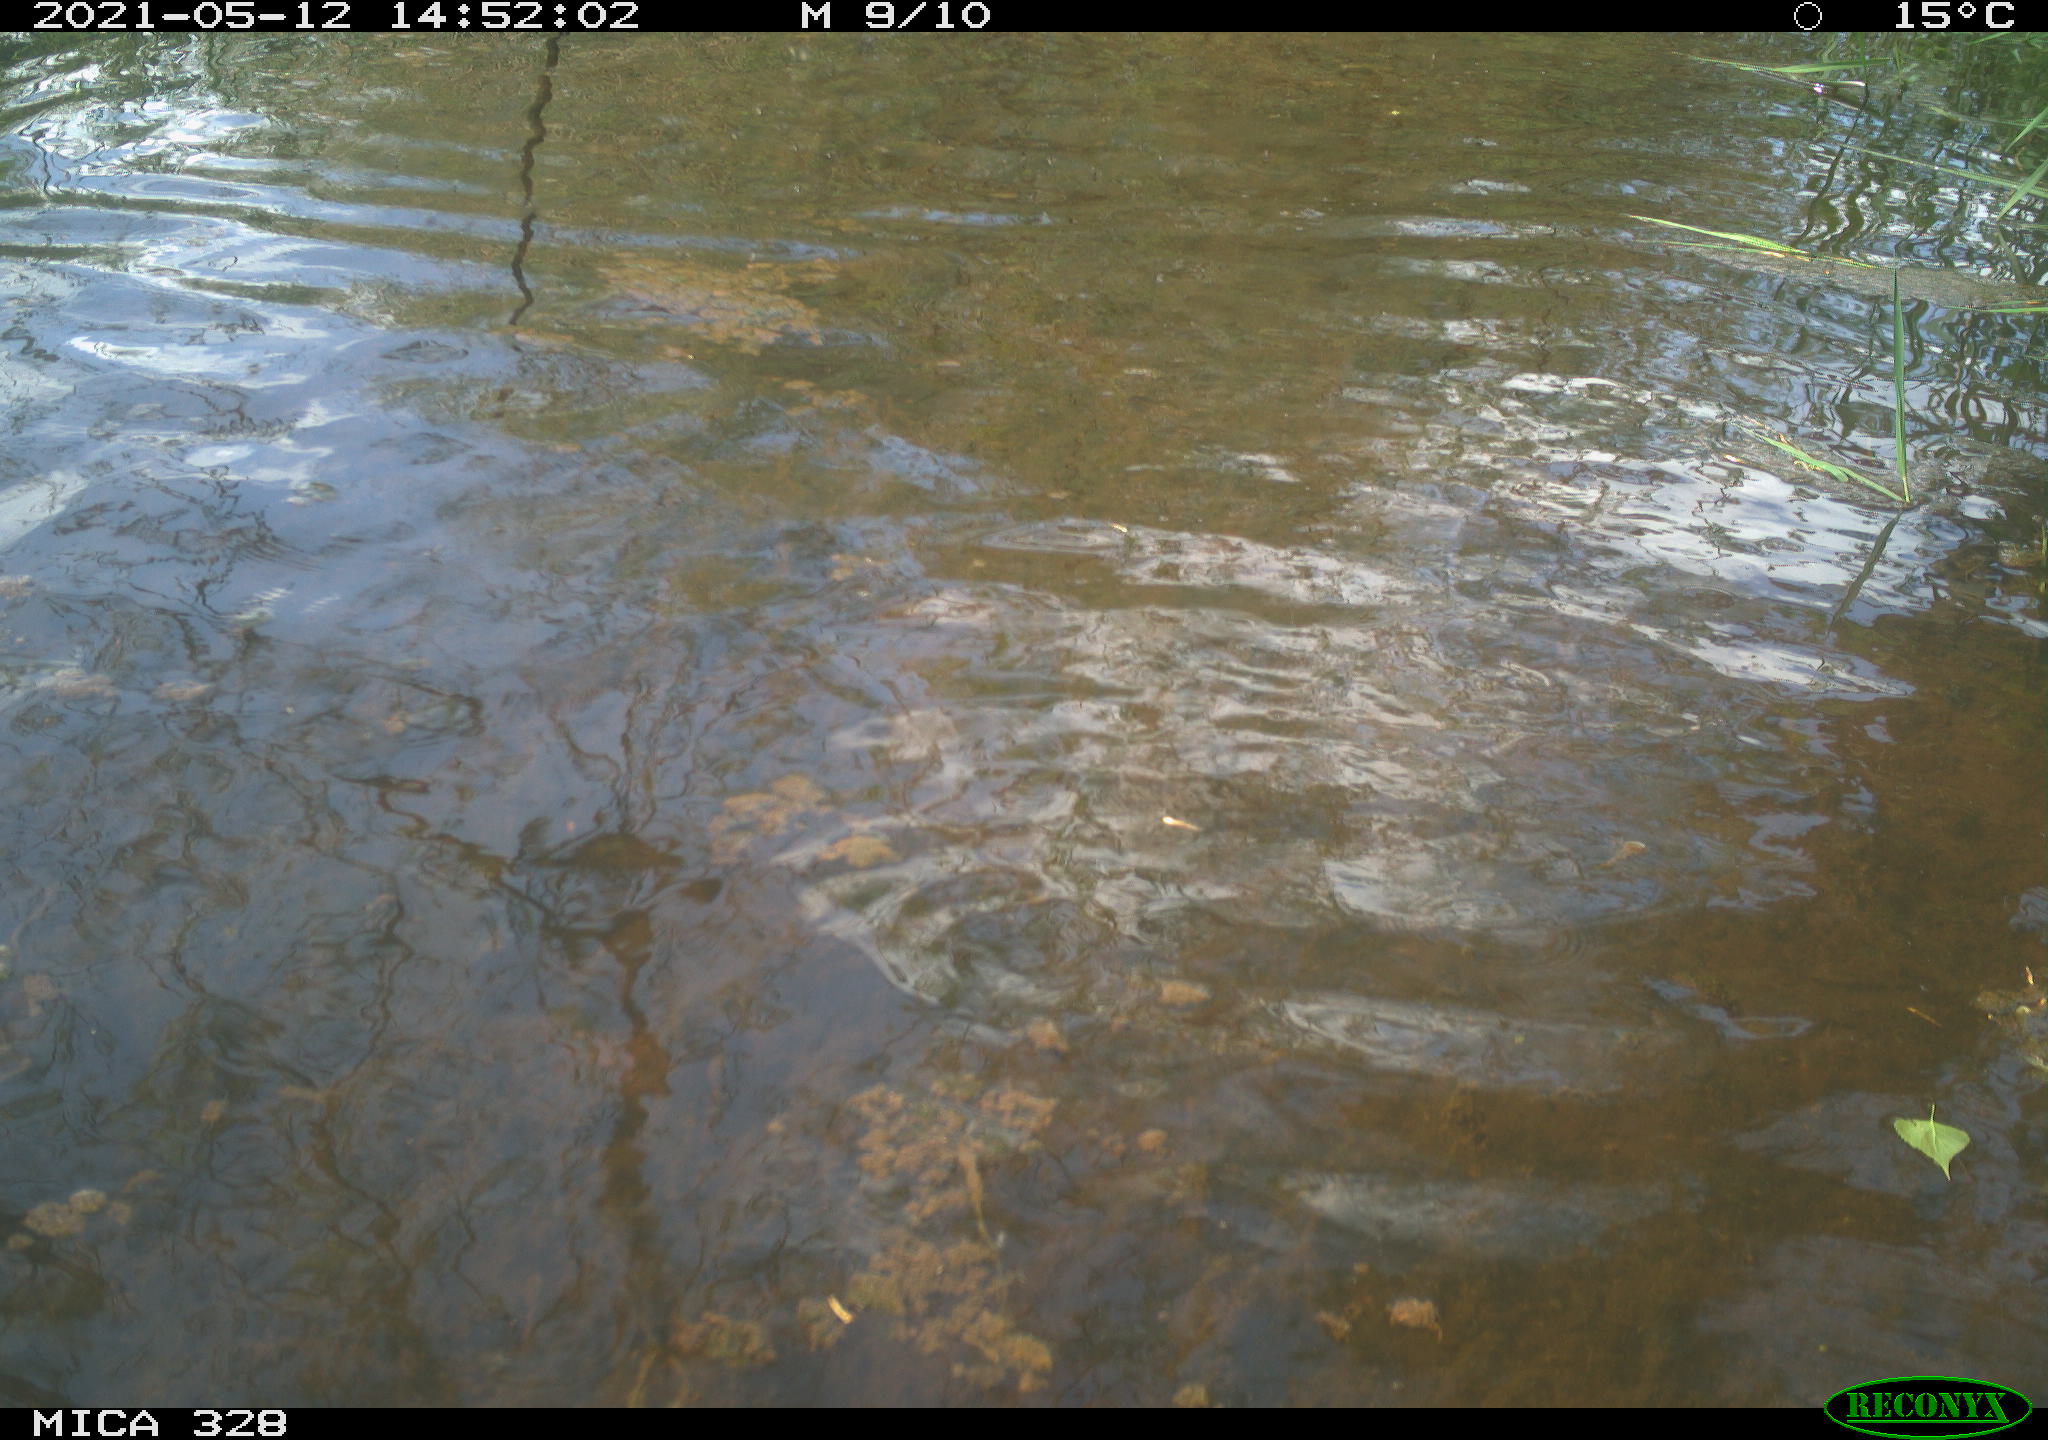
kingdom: Animalia
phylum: Chordata
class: Mammalia
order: Rodentia
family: Cricetidae
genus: Ondatra
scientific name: Ondatra zibethicus
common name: Muskrat
